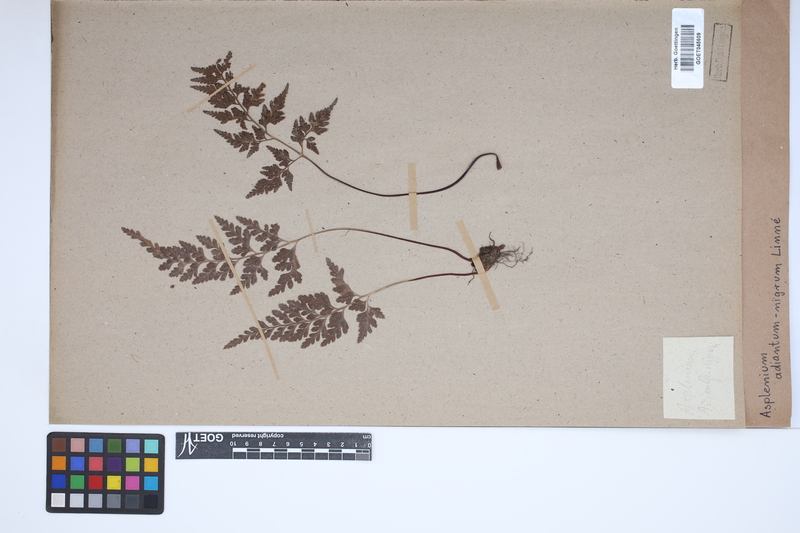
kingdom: Plantae
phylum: Tracheophyta
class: Polypodiopsida
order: Polypodiales
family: Aspleniaceae
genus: Asplenium
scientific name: Asplenium adiantum-nigrum
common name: Black spleenwort
